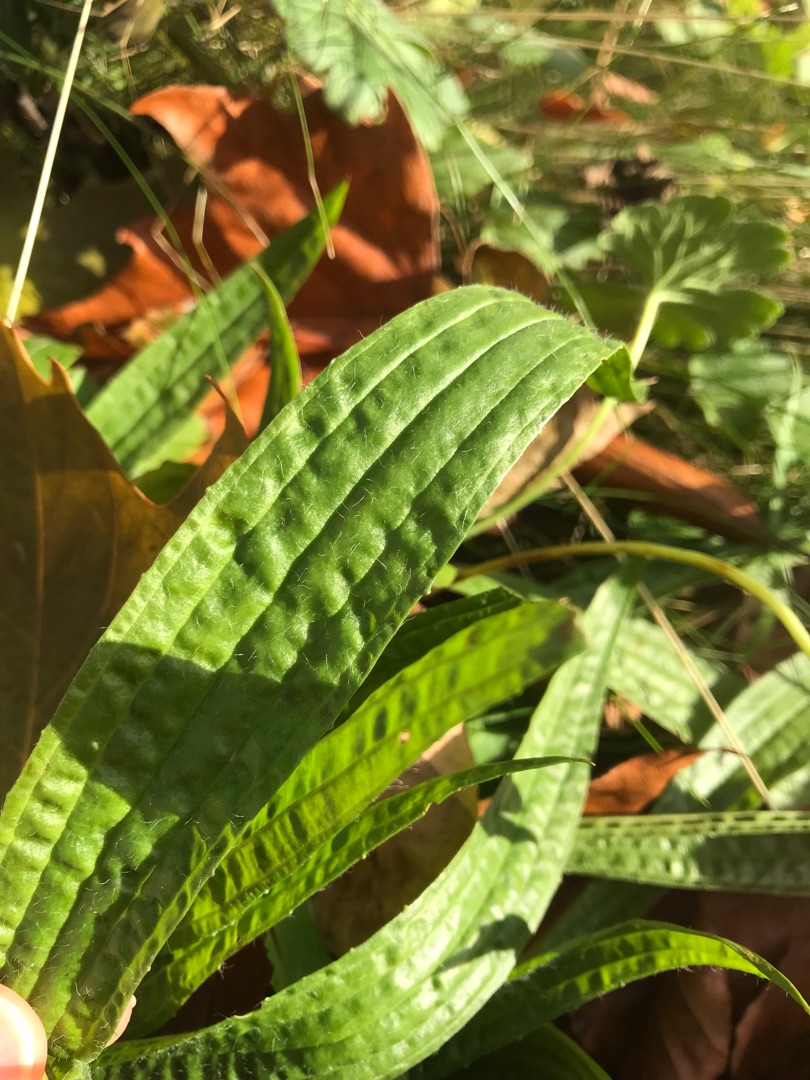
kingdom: Plantae
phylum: Tracheophyta
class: Magnoliopsida
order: Lamiales
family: Plantaginaceae
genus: Plantago
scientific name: Plantago lanceolata
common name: Lancet-vejbred
